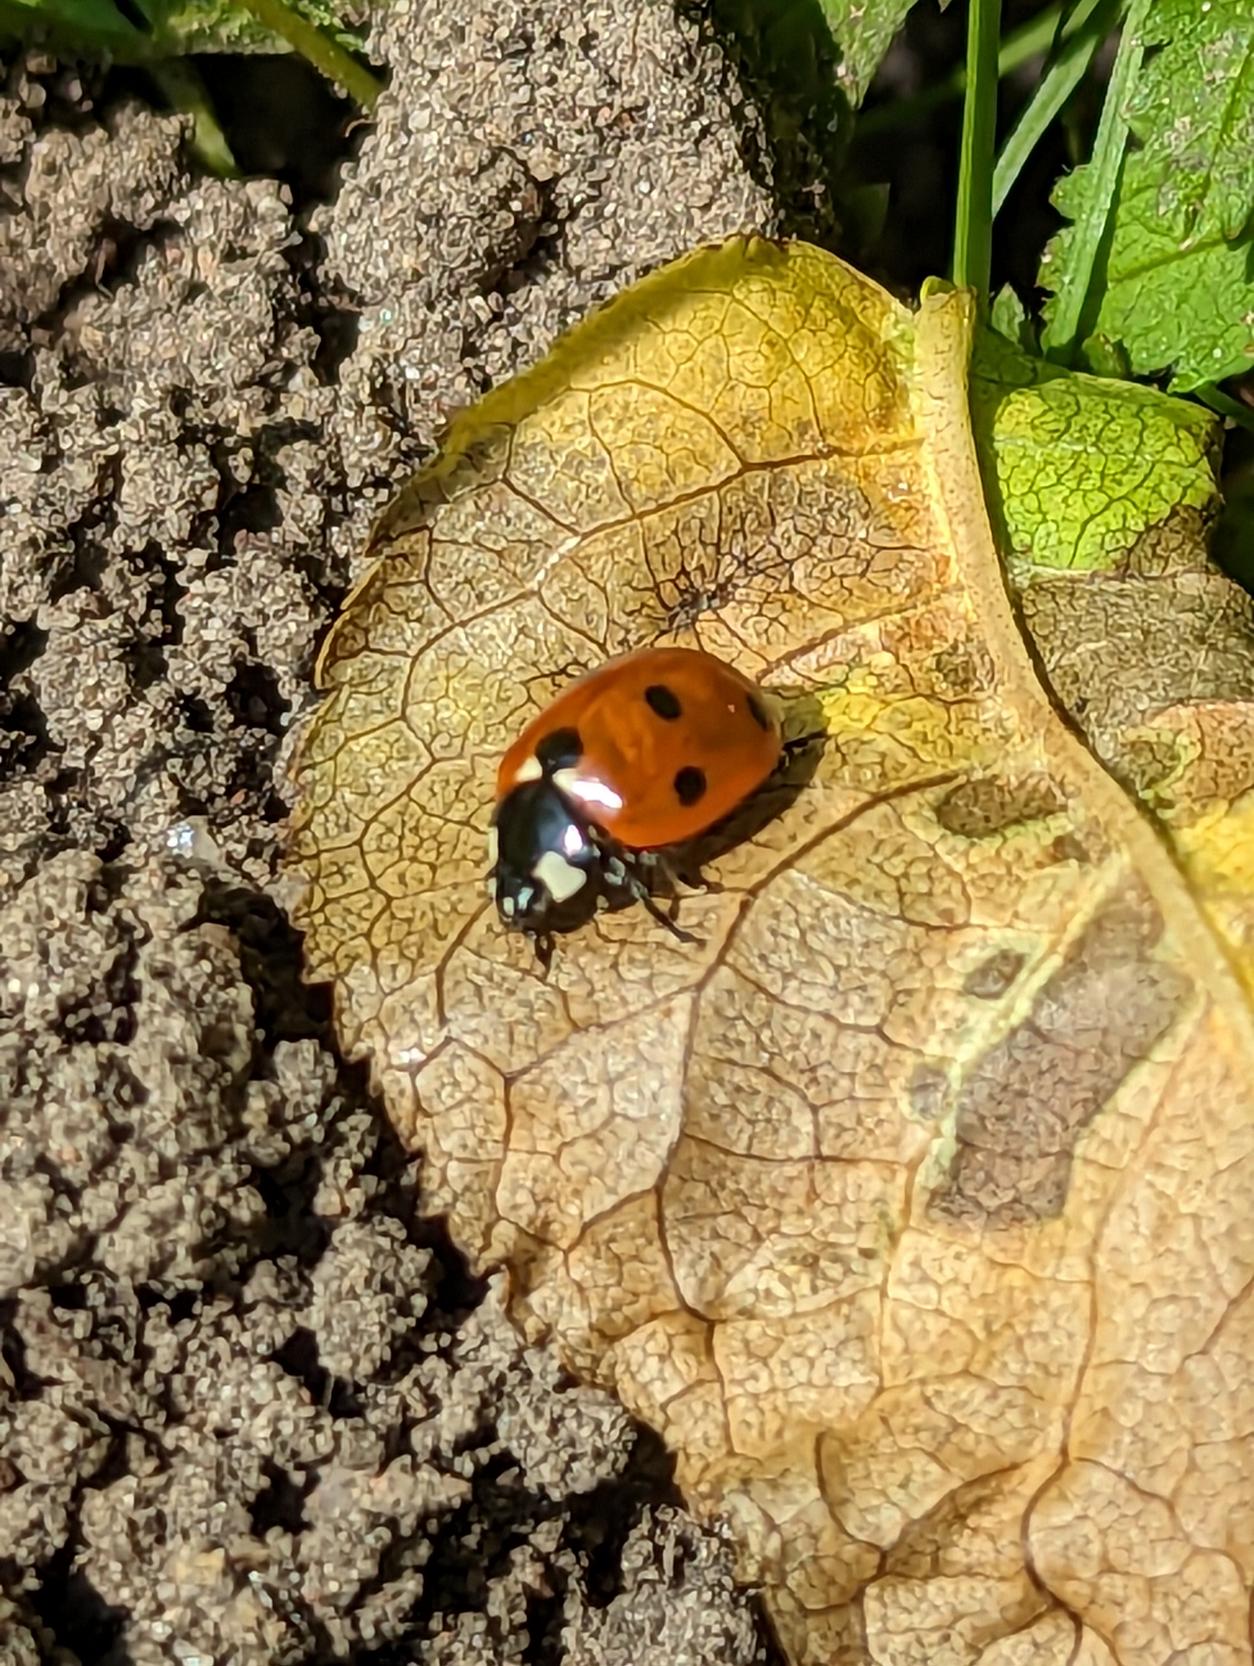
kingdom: Animalia
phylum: Arthropoda
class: Insecta
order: Coleoptera
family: Coccinellidae
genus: Coccinella
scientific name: Coccinella septempunctata
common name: Syvplettet mariehøne
